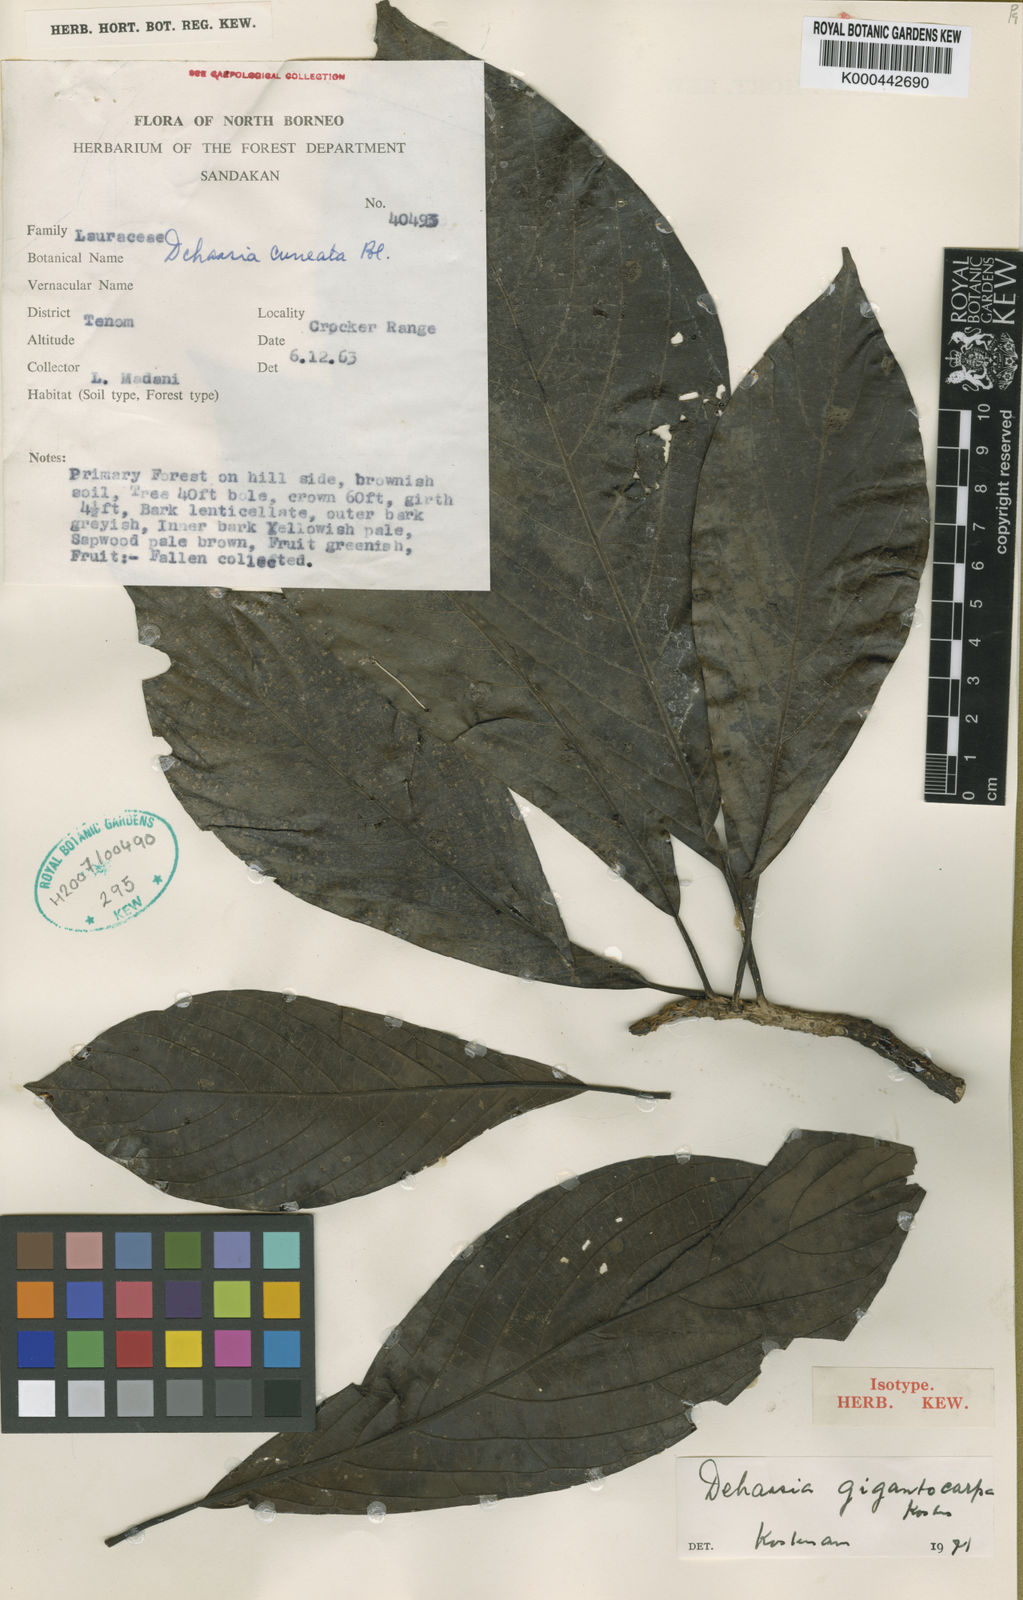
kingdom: Plantae
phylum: Tracheophyta
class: Magnoliopsida
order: Laurales
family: Lauraceae
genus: Dehaasia
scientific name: Dehaasia gigantocarpa
